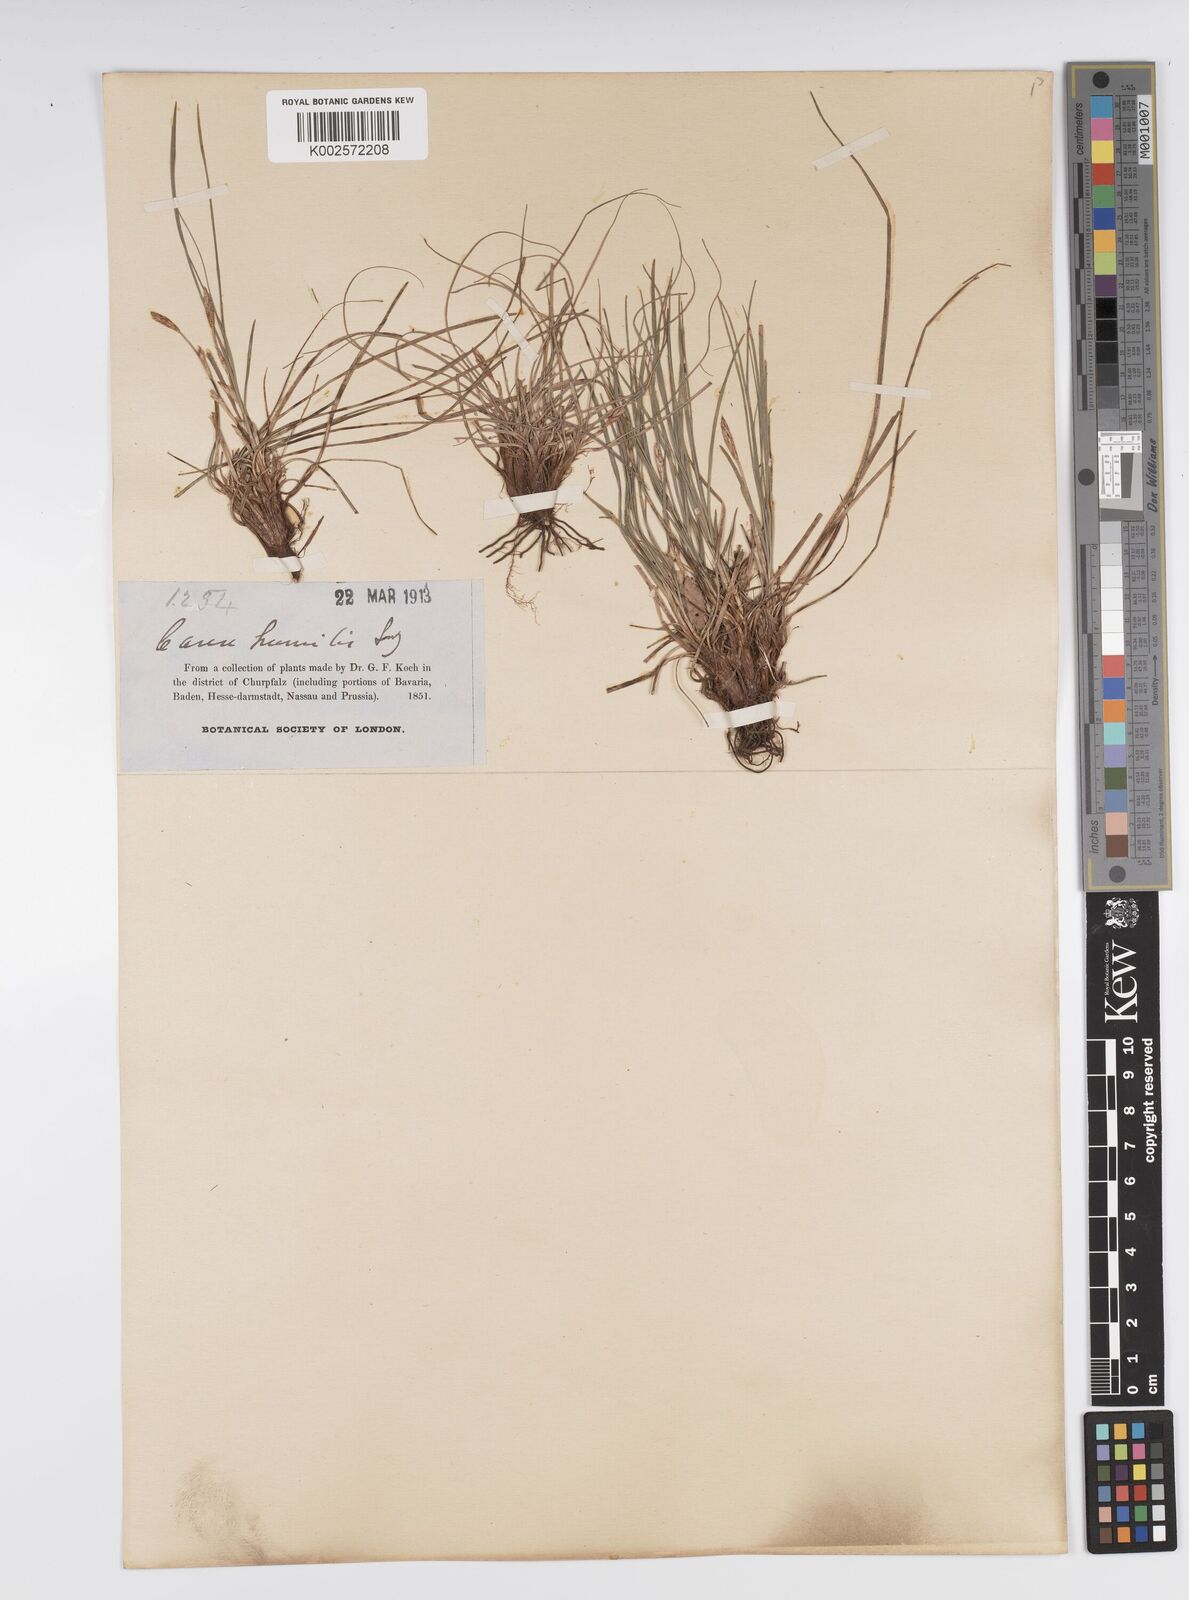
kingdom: Plantae
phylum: Tracheophyta
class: Liliopsida
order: Poales
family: Cyperaceae
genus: Carex
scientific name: Carex humilis
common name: Dwarf sedge
